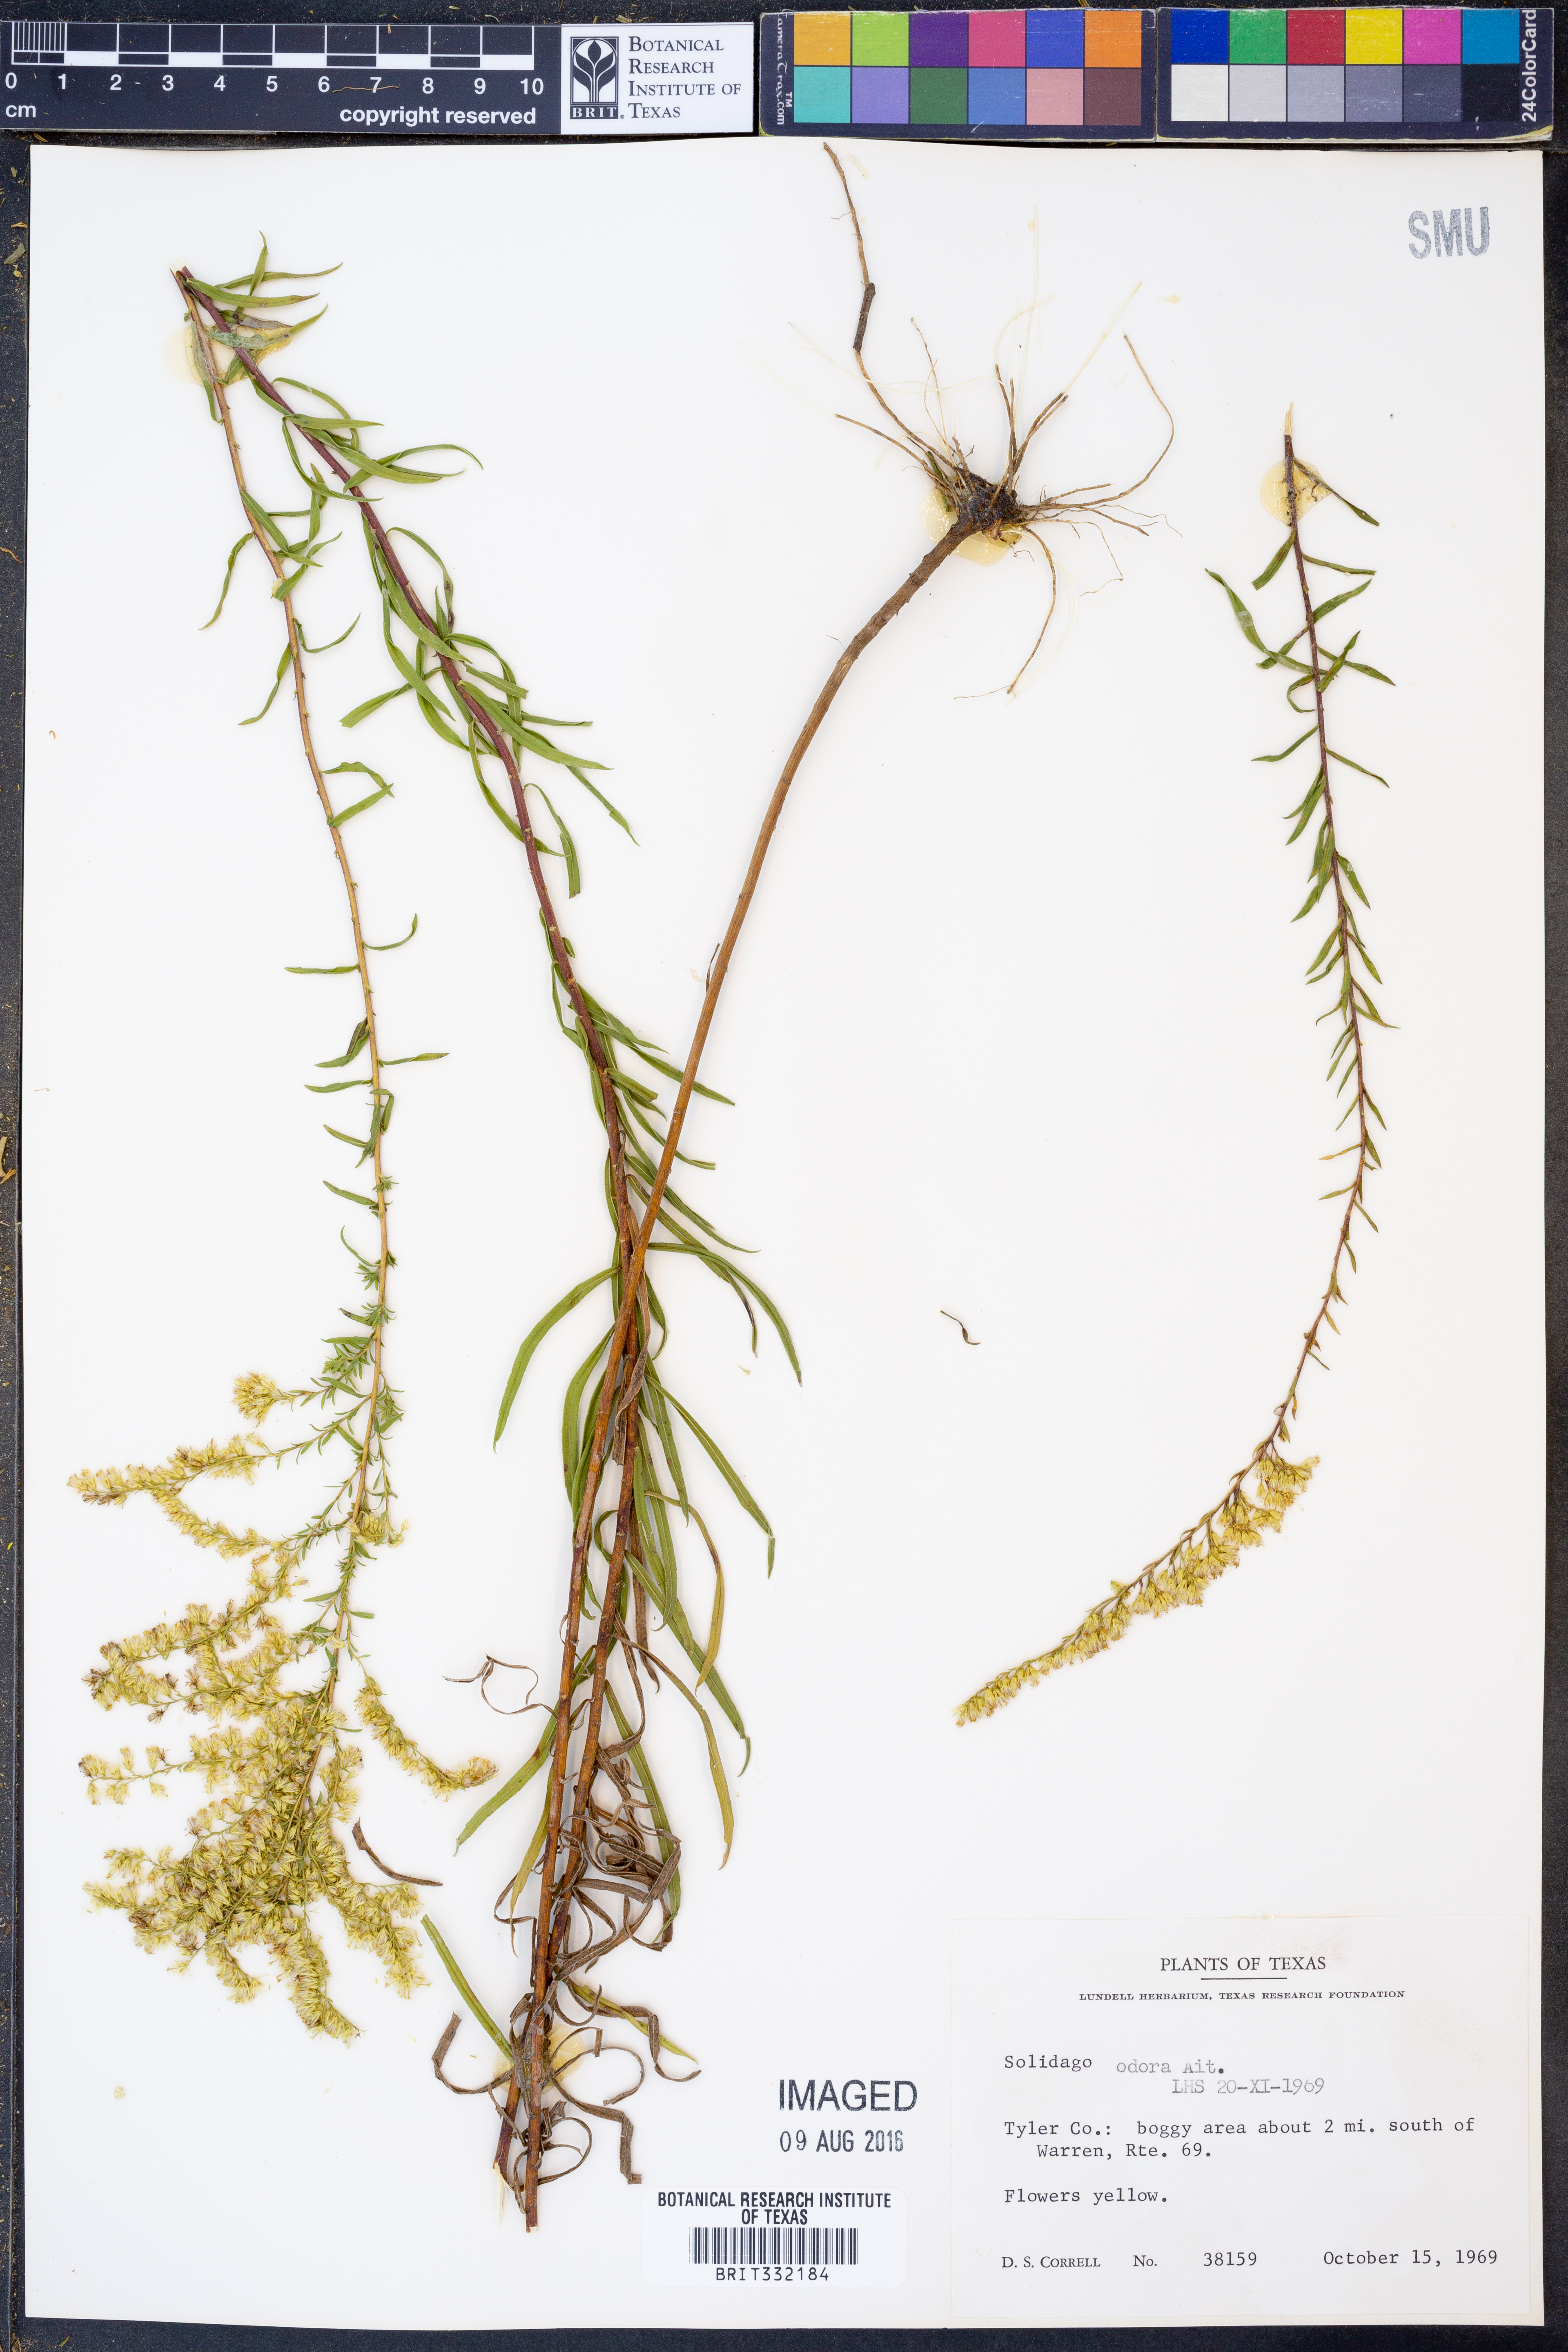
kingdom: Plantae
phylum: Tracheophyta
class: Magnoliopsida
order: Asterales
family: Asteraceae
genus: Solidago
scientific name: Solidago odora
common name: Anise-scented goldenrod
